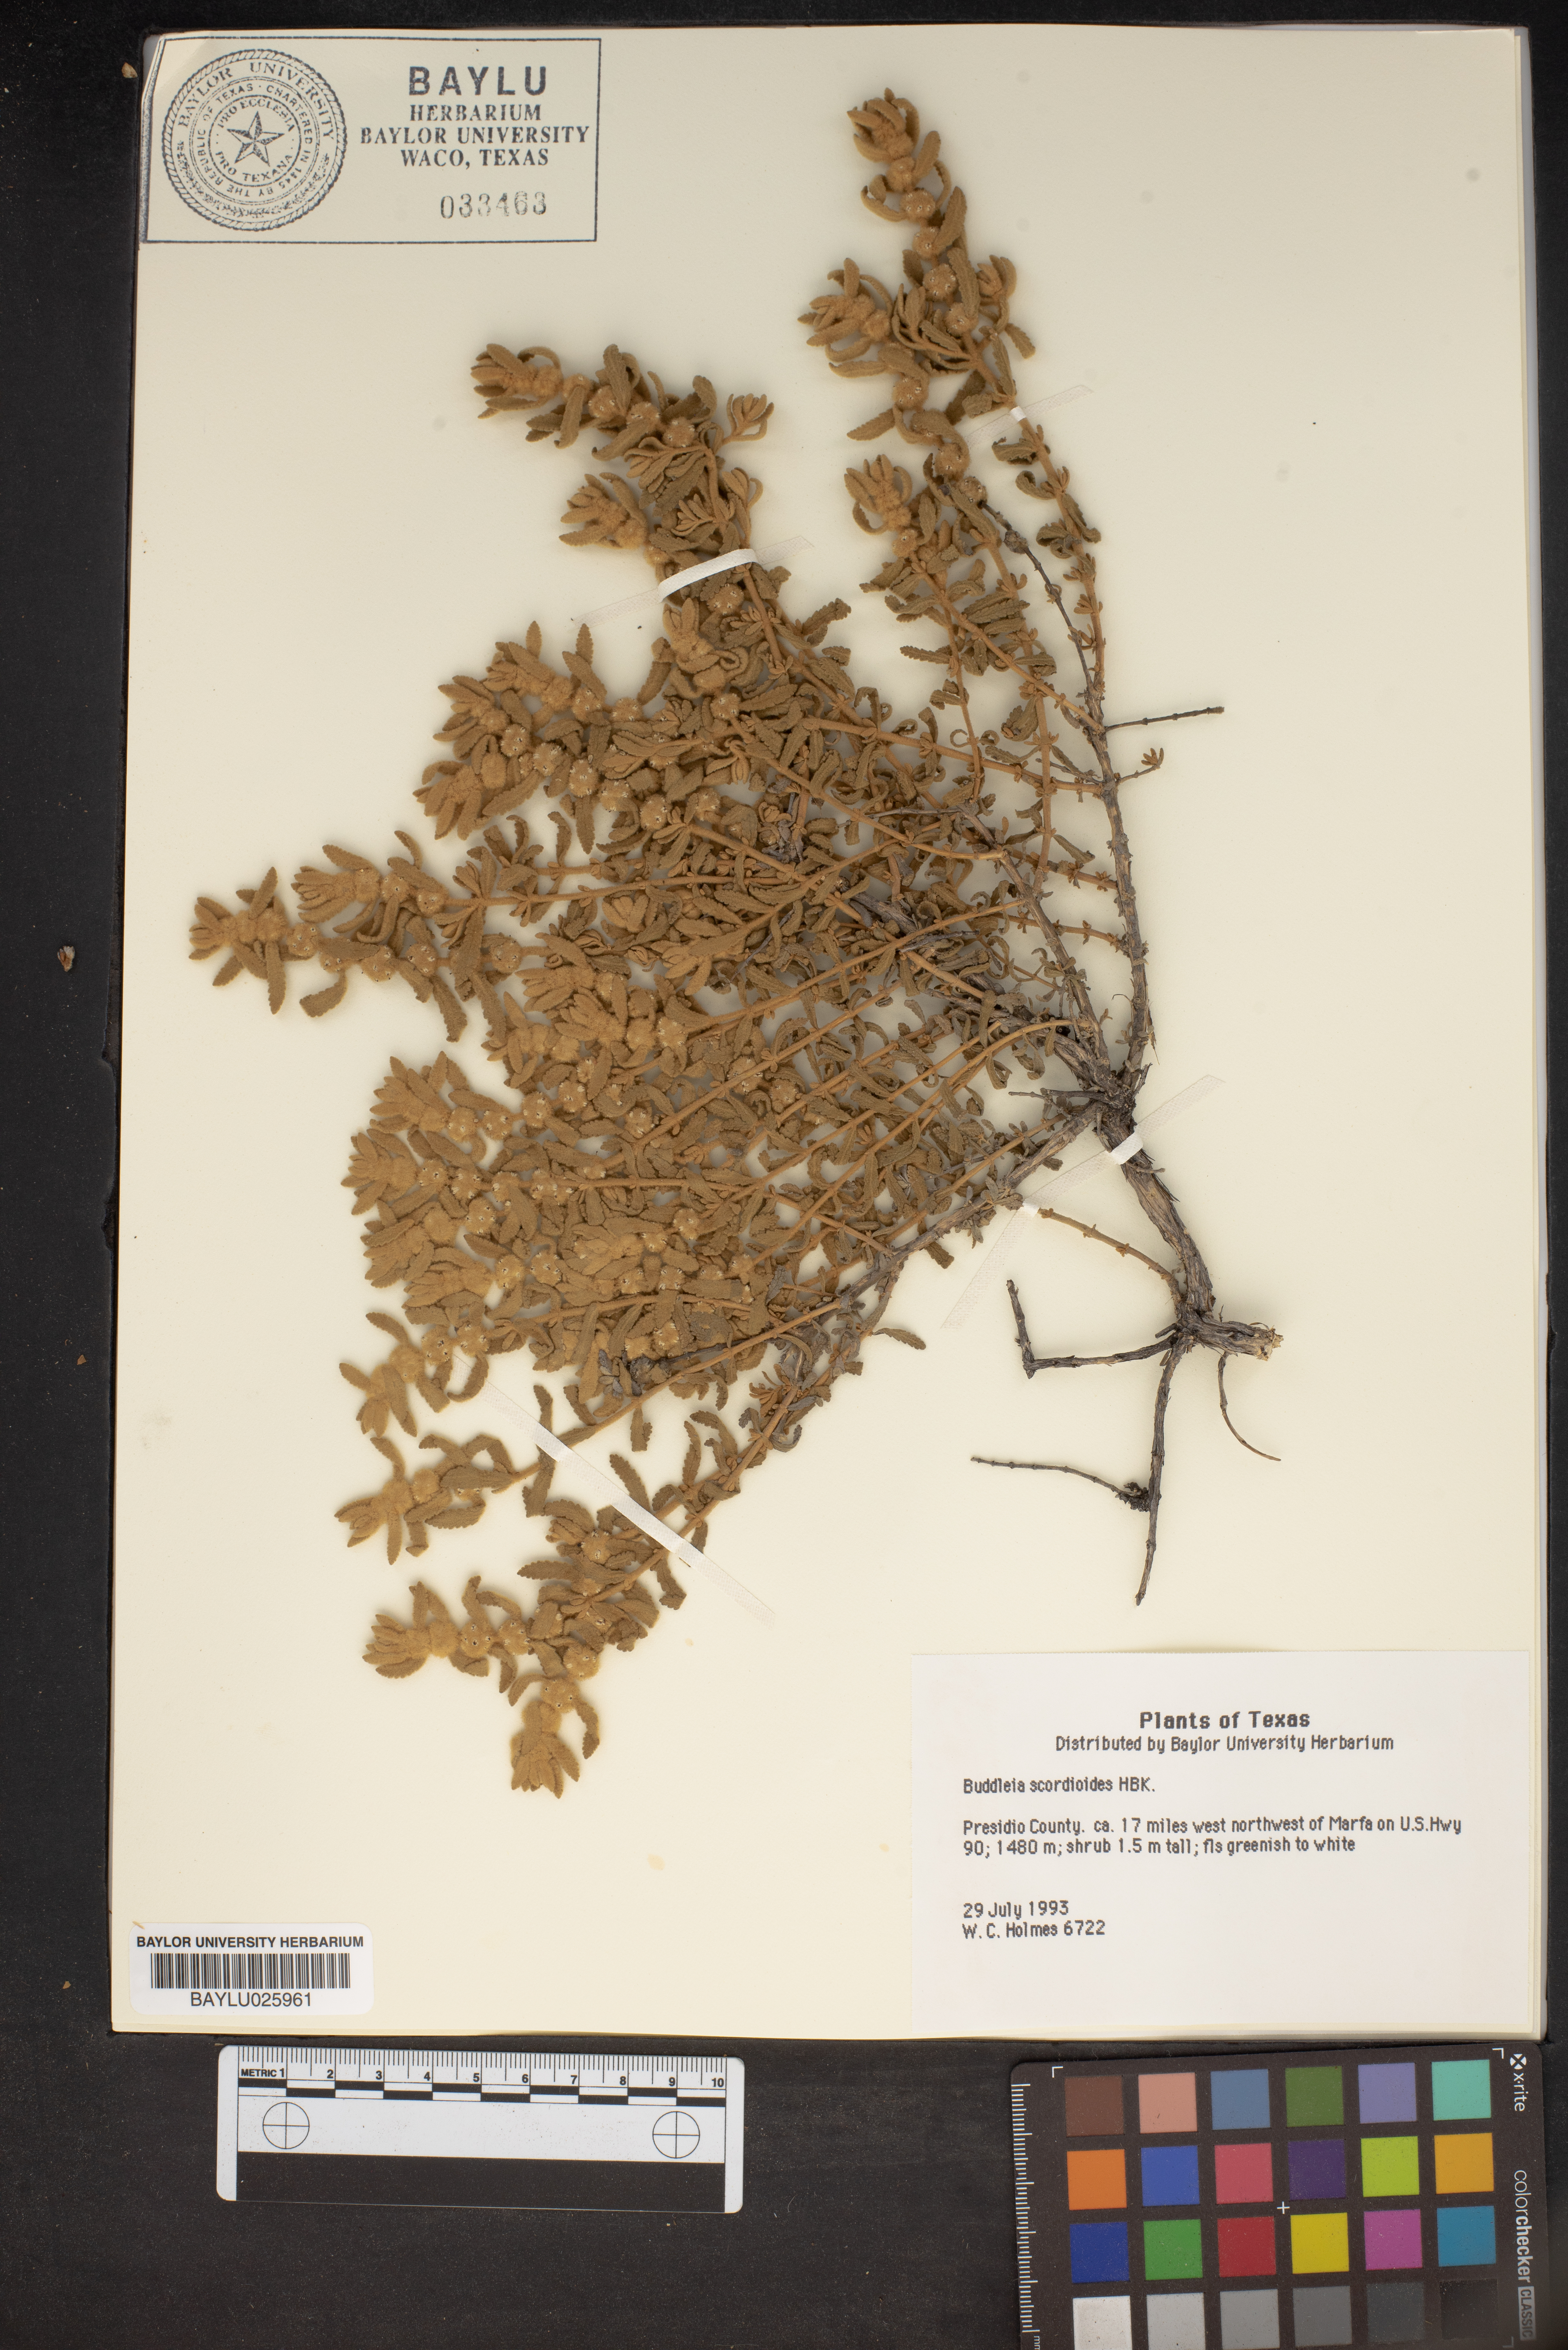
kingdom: Plantae
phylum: Tracheophyta
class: Magnoliopsida
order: Lamiales
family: Scrophulariaceae
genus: Buddleja
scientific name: Buddleja scordioides
